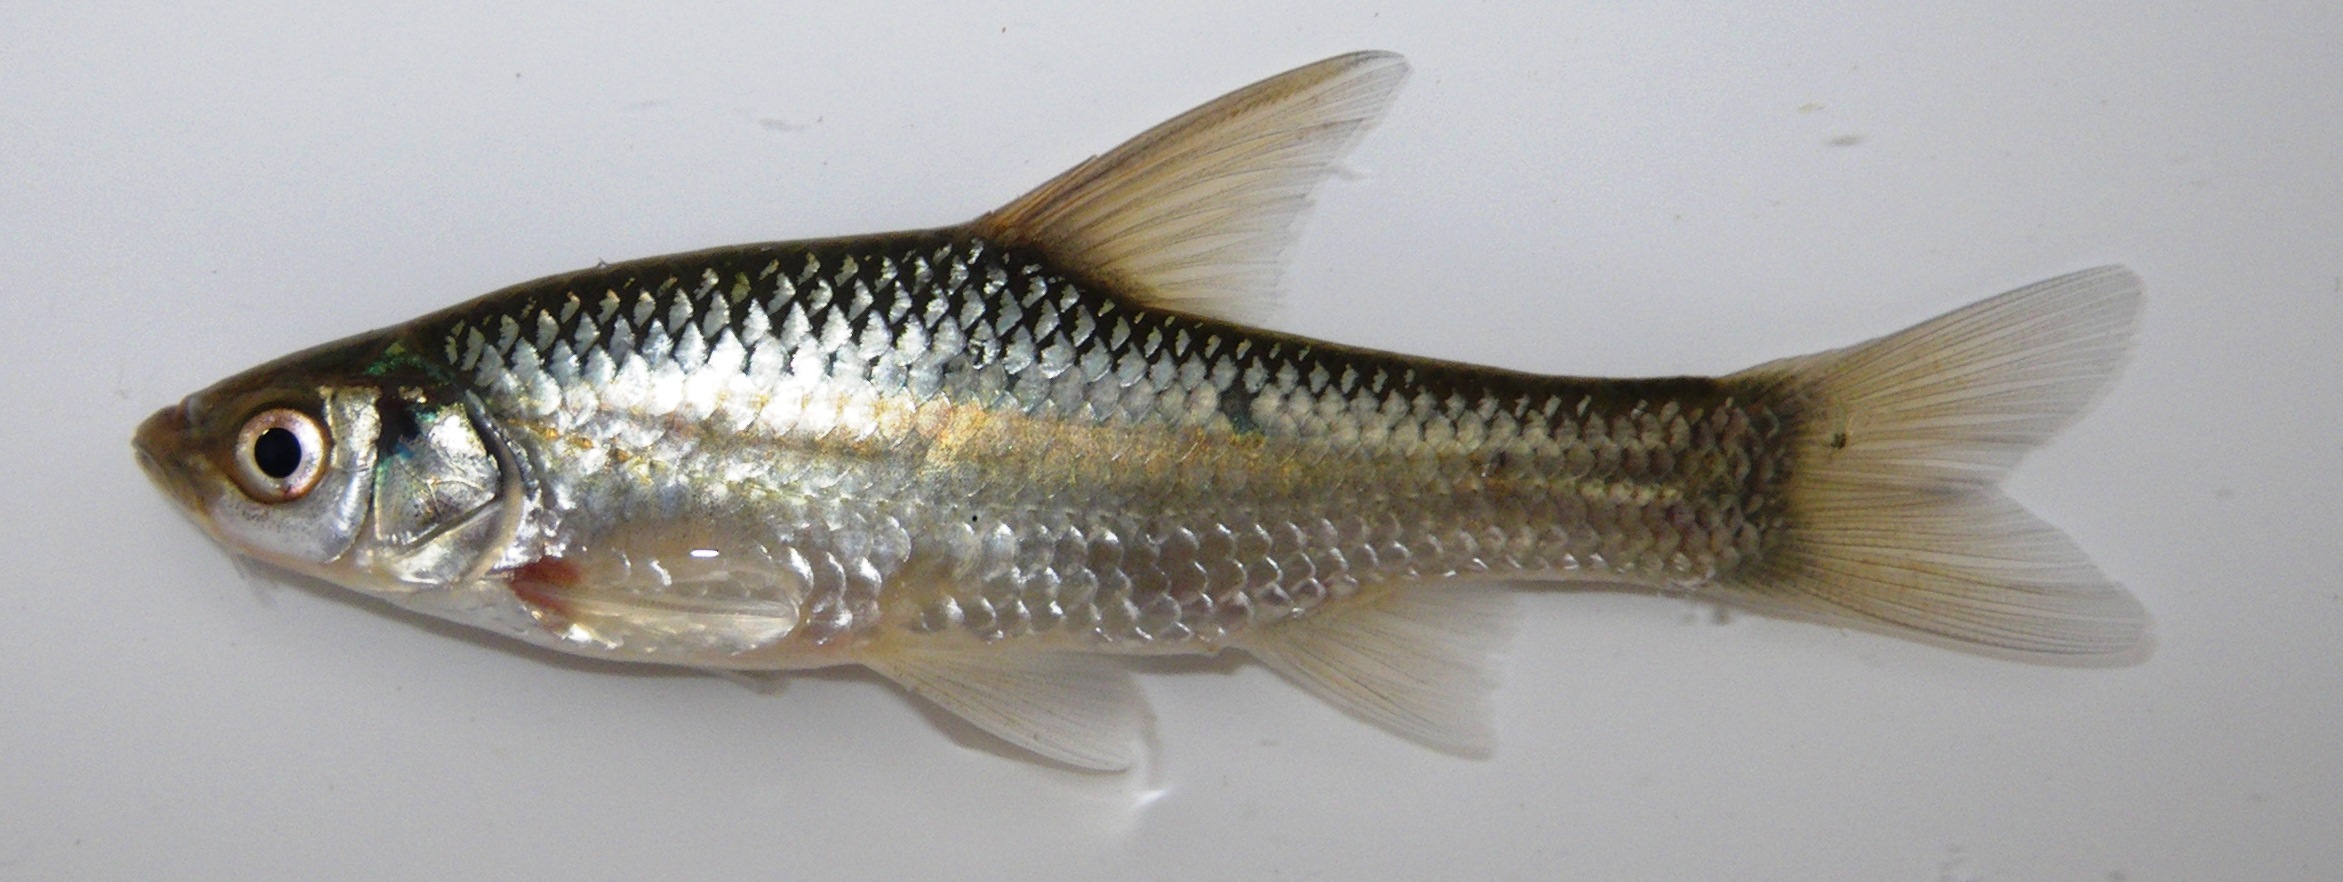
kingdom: Animalia
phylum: Chordata
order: Cypriniformes
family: Cyprinidae
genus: Enteromius
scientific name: Enteromius paludinosus
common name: Straightfin barb
